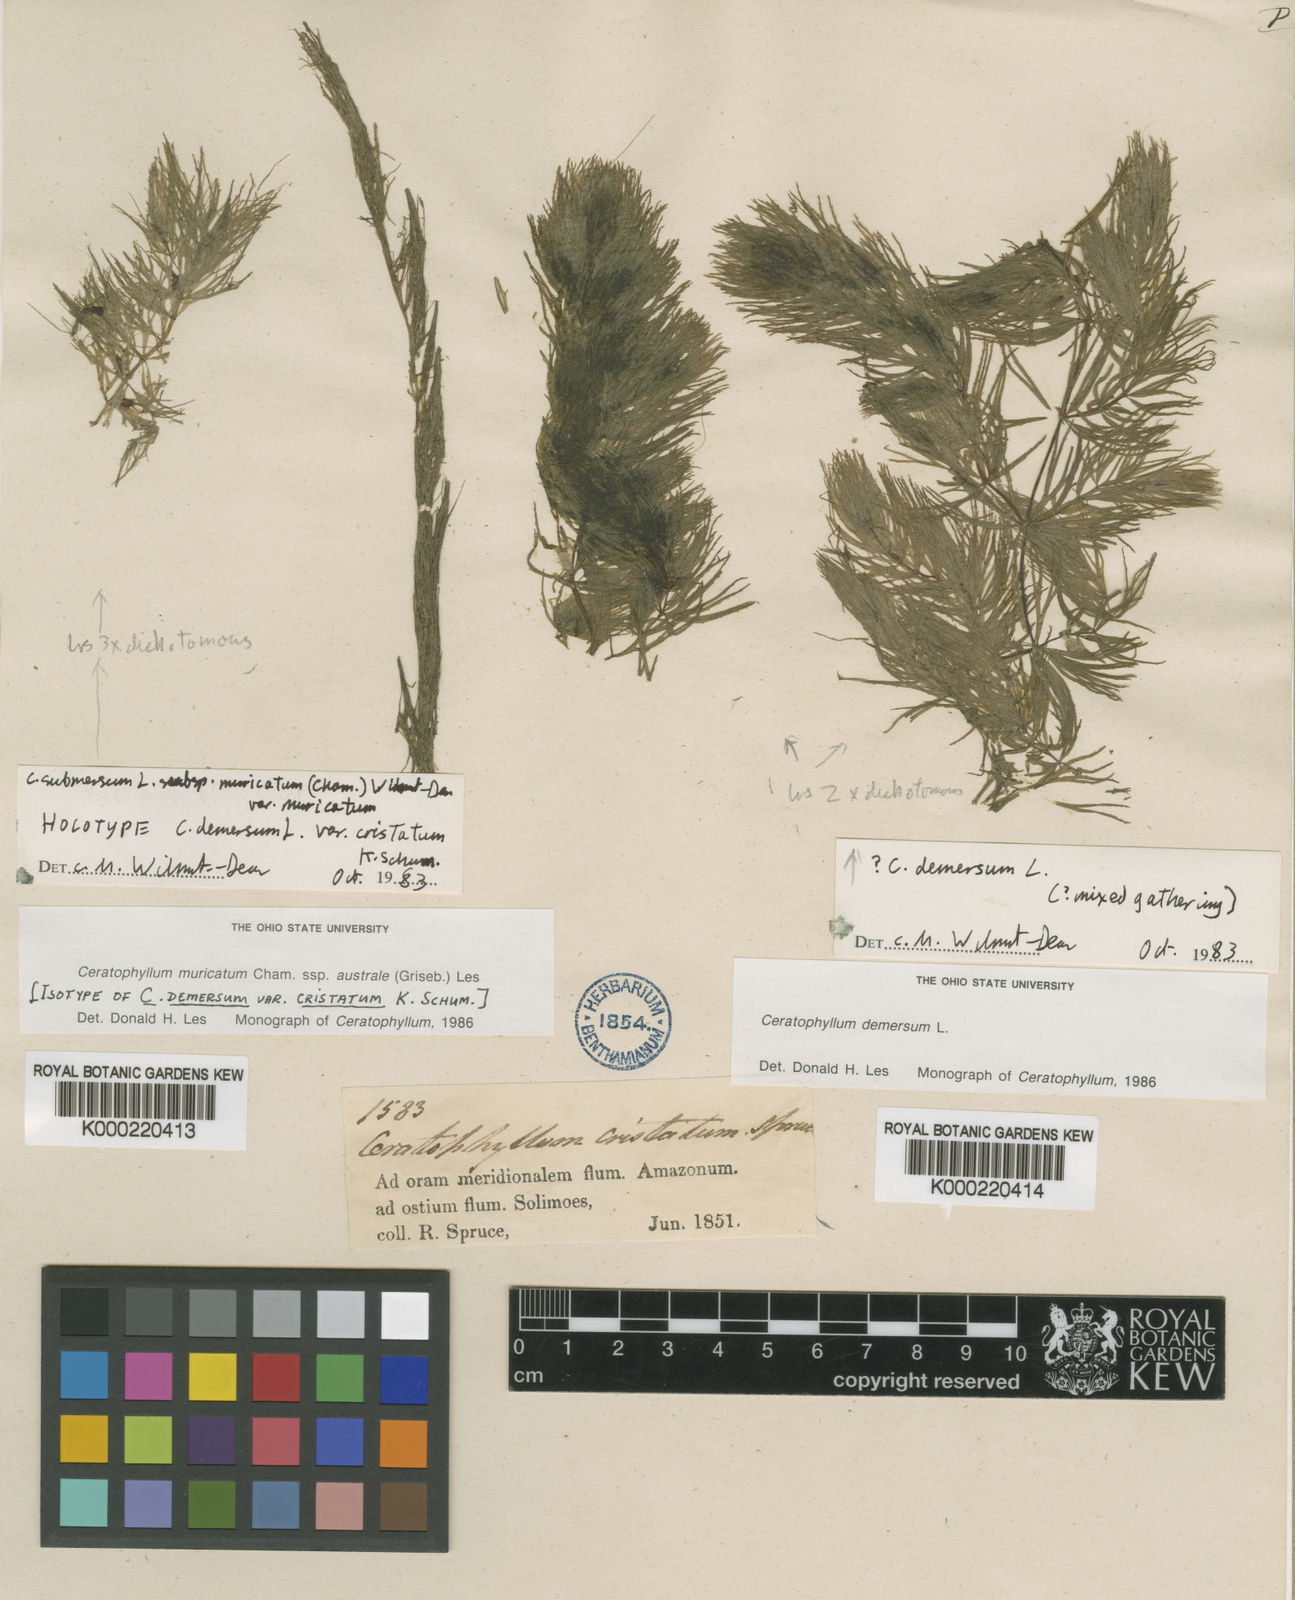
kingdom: Plantae
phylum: Tracheophyta
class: Magnoliopsida
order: Ceratophyllales
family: Ceratophyllaceae
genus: Ceratophyllum
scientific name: Ceratophyllum muricatum
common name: Prickly hornwort
